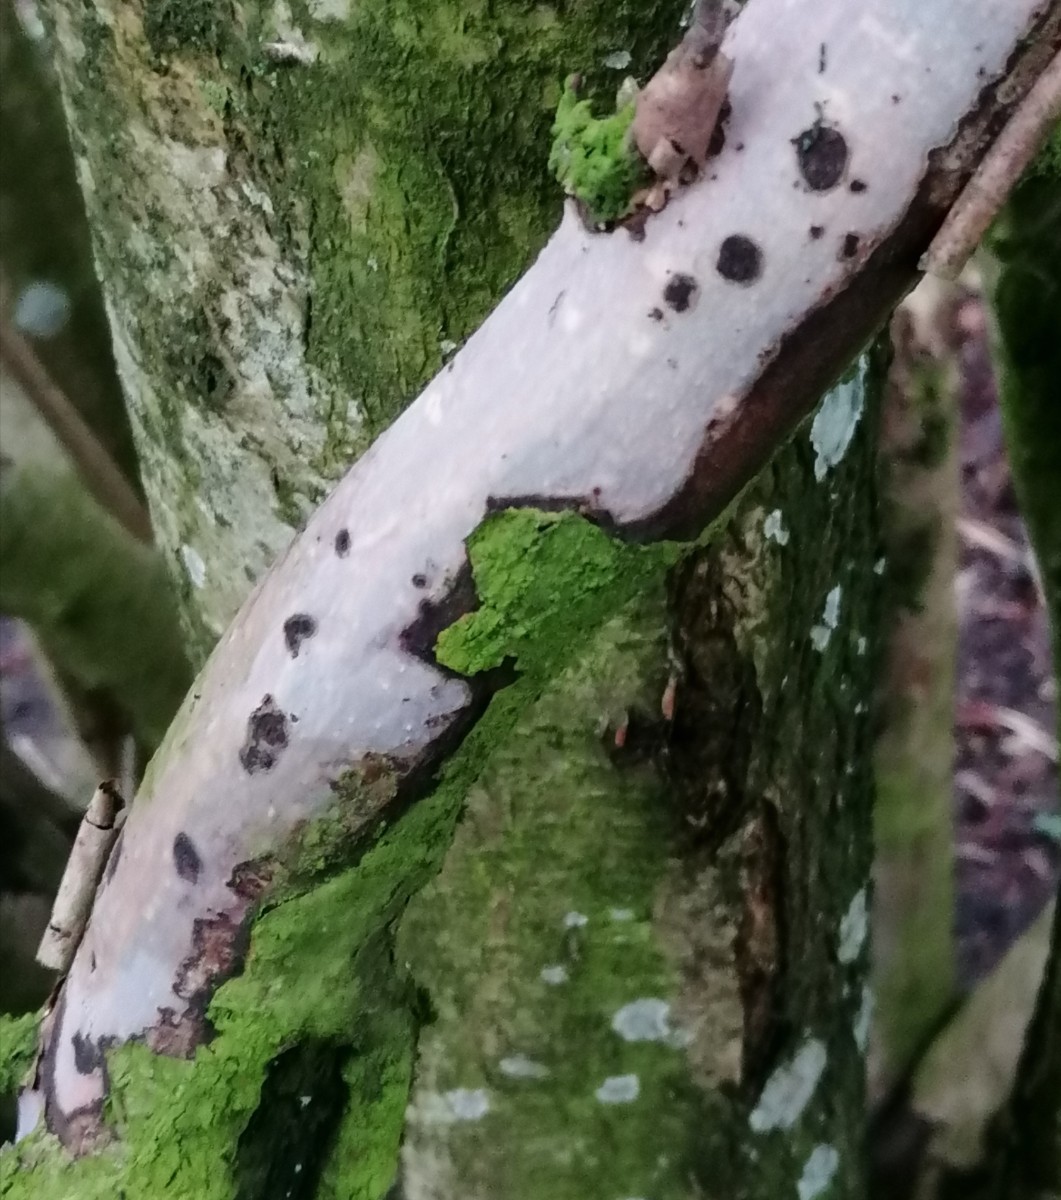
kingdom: Fungi
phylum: Basidiomycota
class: Agaricomycetes
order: Corticiales
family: Vuilleminiaceae
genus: Vuilleminia
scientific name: Vuilleminia coryli
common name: hassel-barksprænger
